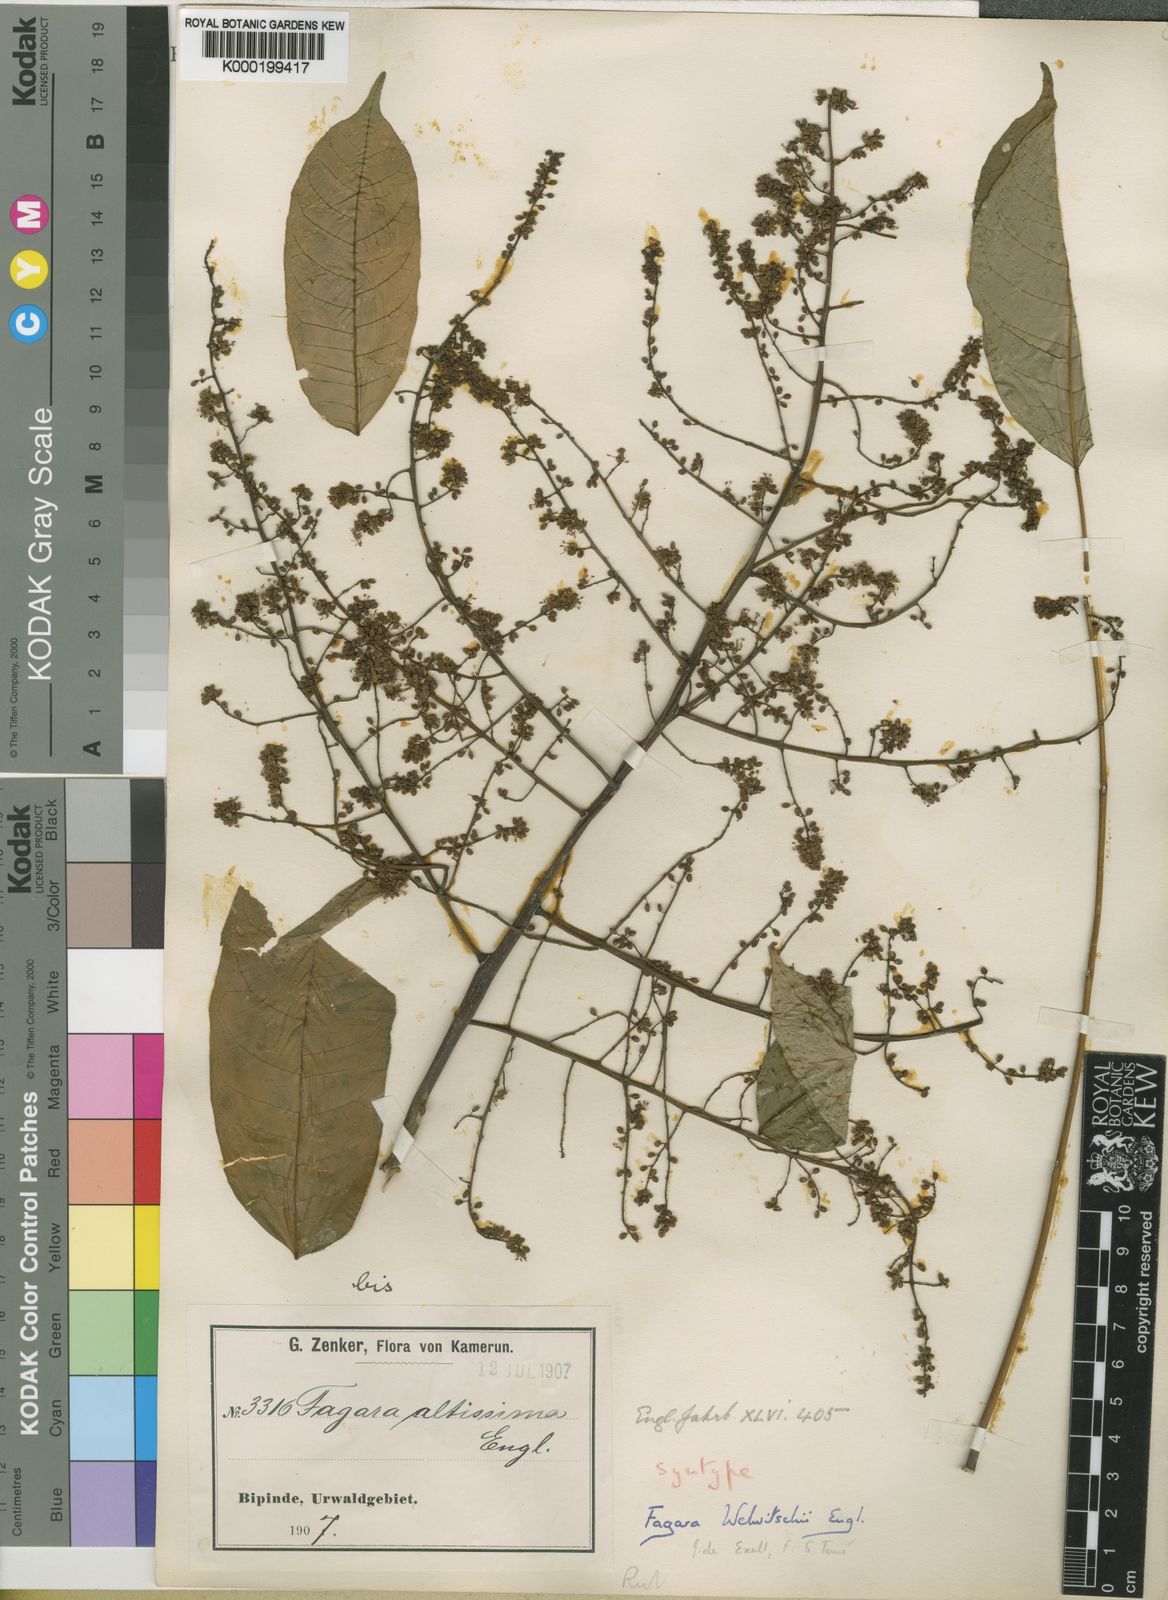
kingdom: Plantae
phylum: Tracheophyta
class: Magnoliopsida
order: Sapindales
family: Rutaceae
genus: Vepris
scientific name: Vepris grandifolia
